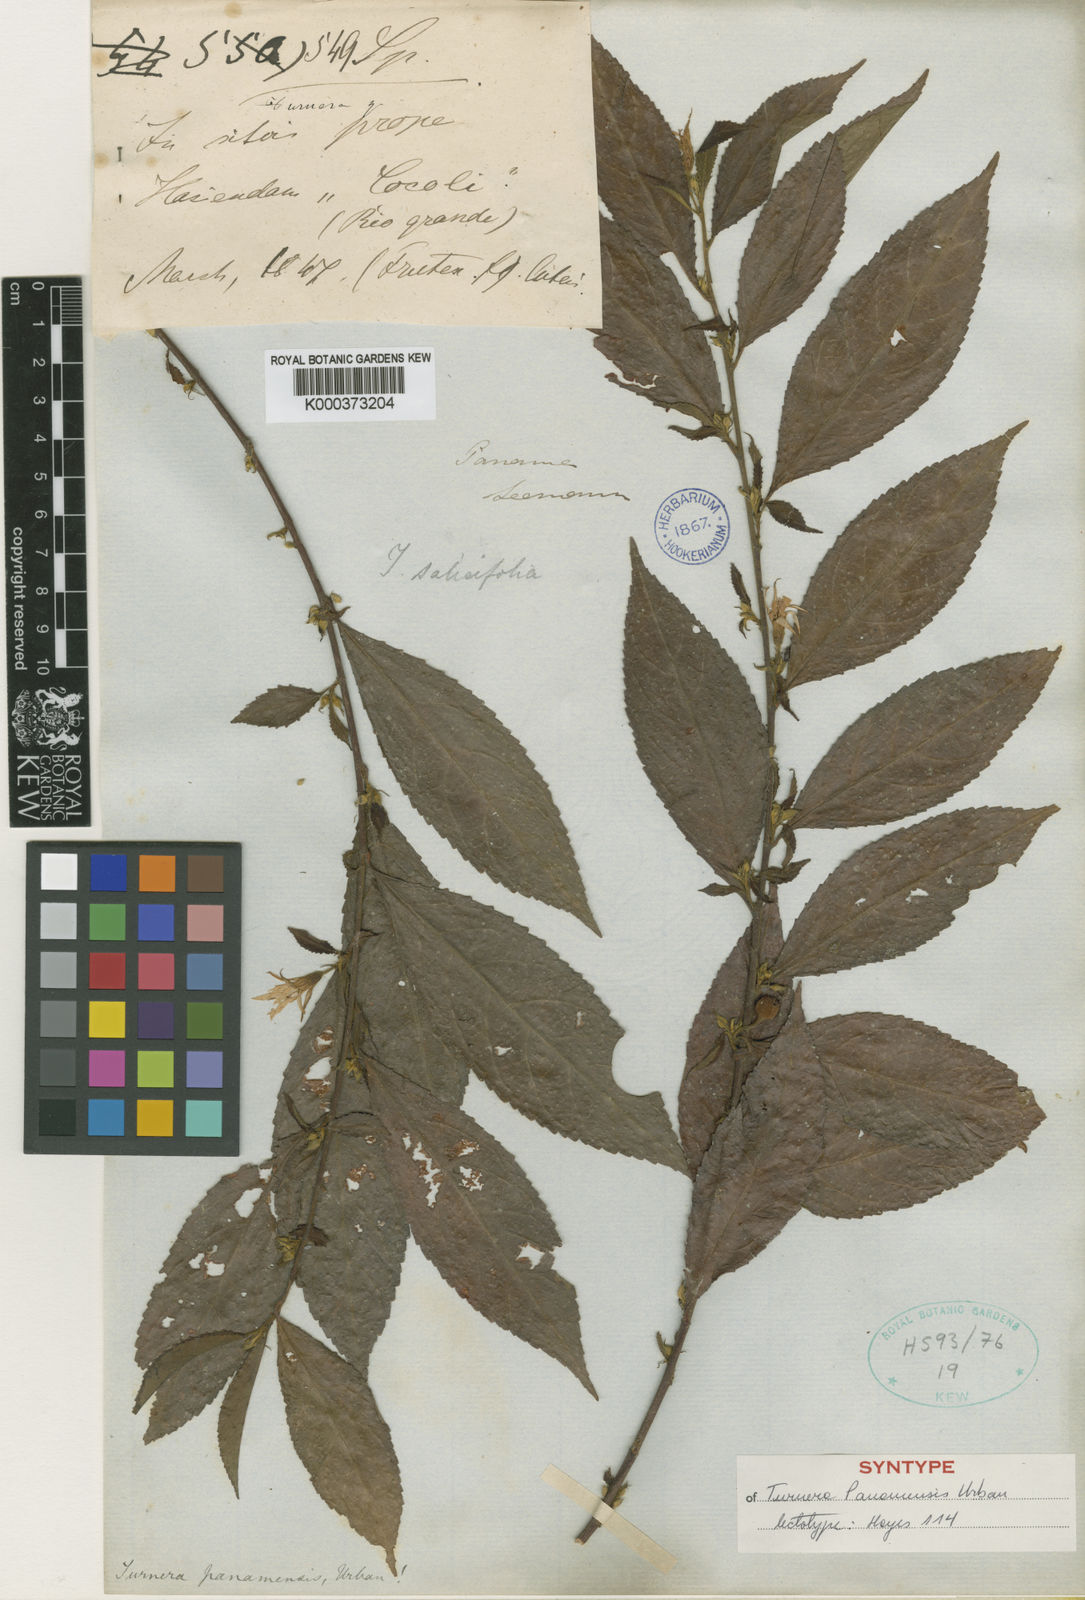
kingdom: Plantae
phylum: Tracheophyta
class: Magnoliopsida
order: Malpighiales
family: Turneraceae
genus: Turnera
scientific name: Turnera panamensis
